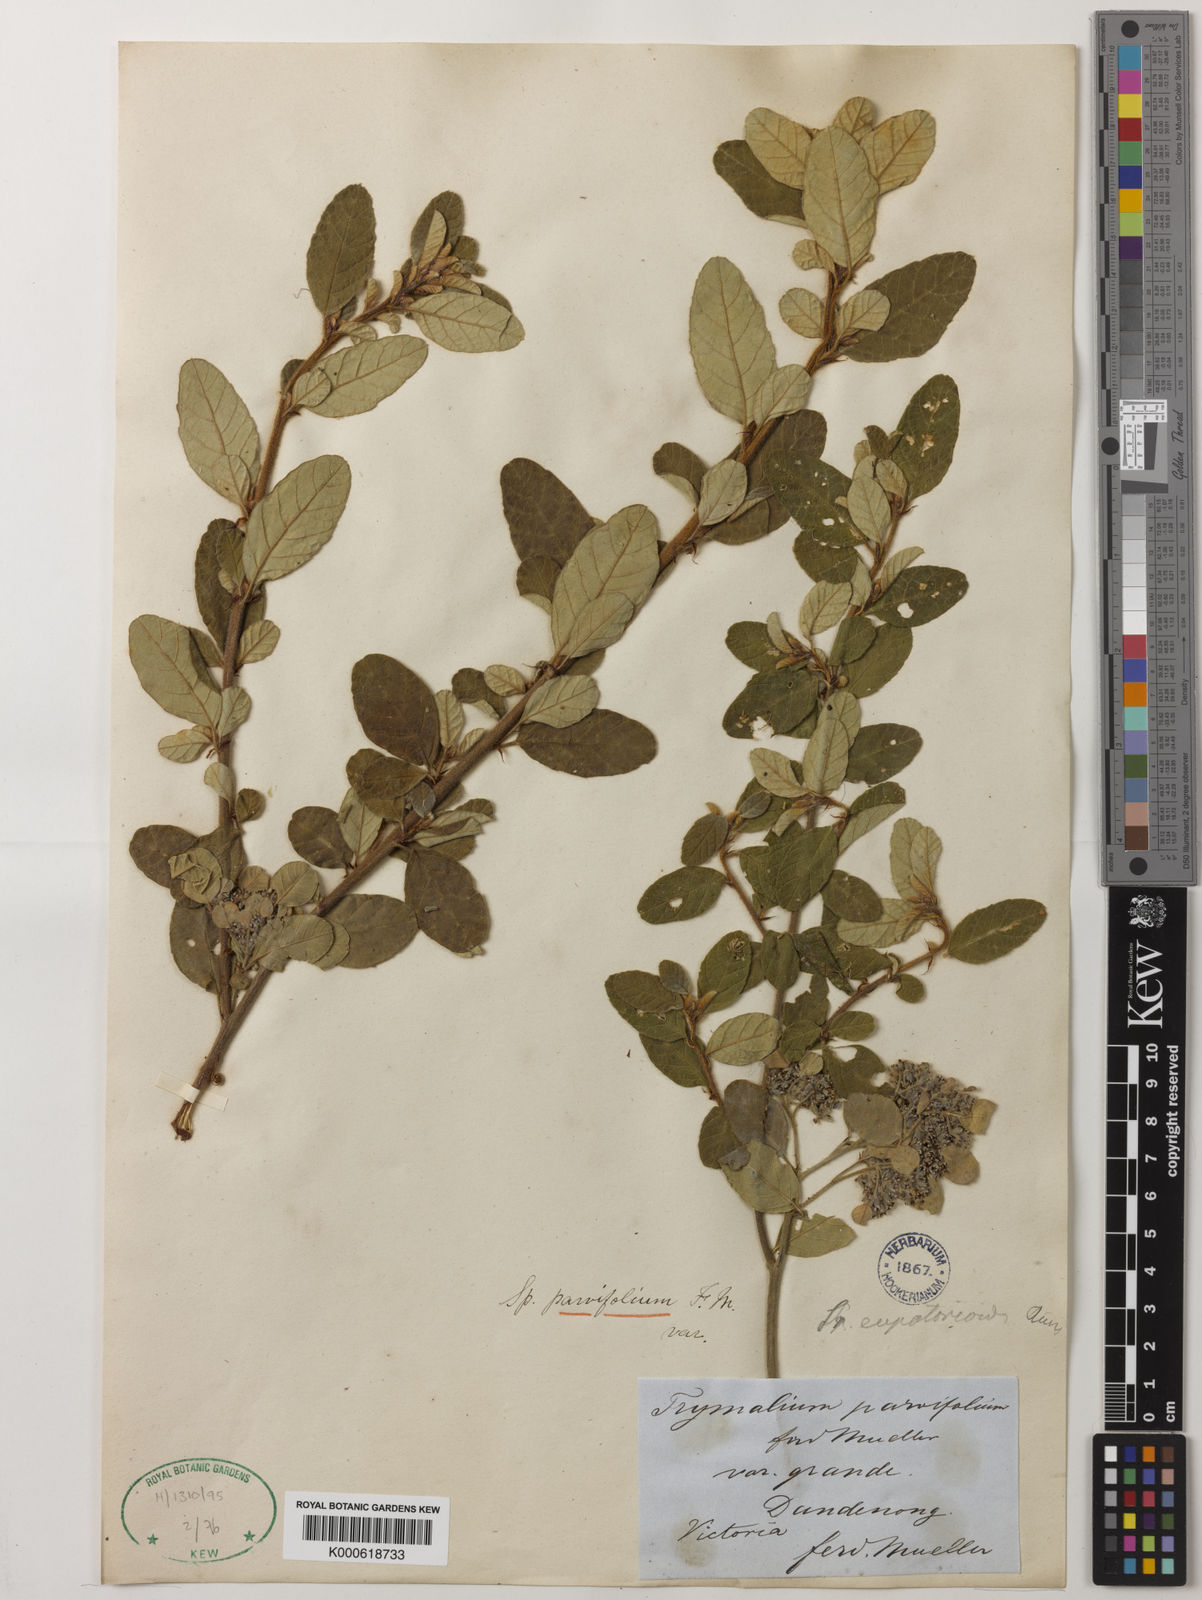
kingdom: Plantae
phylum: Tracheophyta
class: Magnoliopsida
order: Rosales
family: Rhamnaceae
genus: Spyridium
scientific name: Spyridium parvifolium
